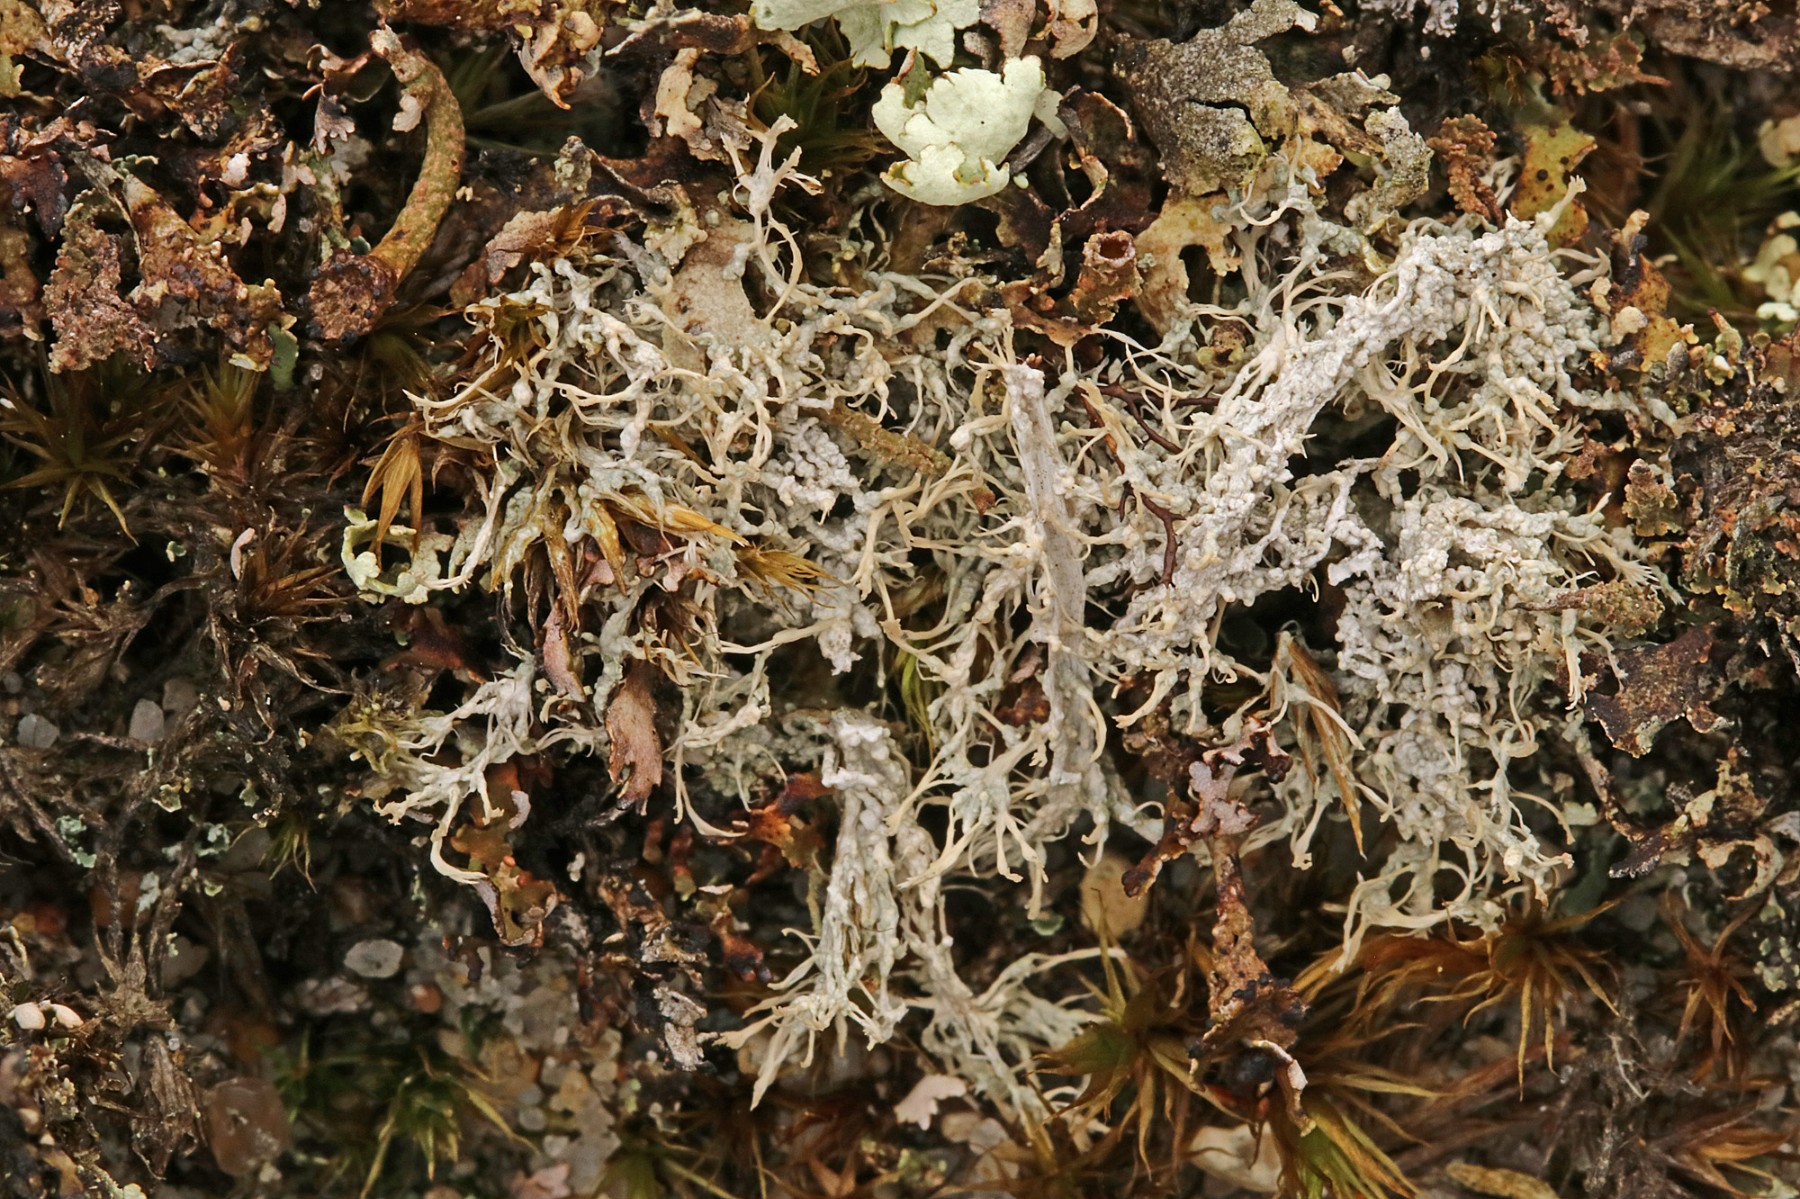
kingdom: Fungi
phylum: Ascomycota
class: Lecanoromycetes
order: Pertusariales
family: Ochrolechiaceae
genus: Ochrolechia
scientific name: Ochrolechia frigida
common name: fjeld-blegskivelav
